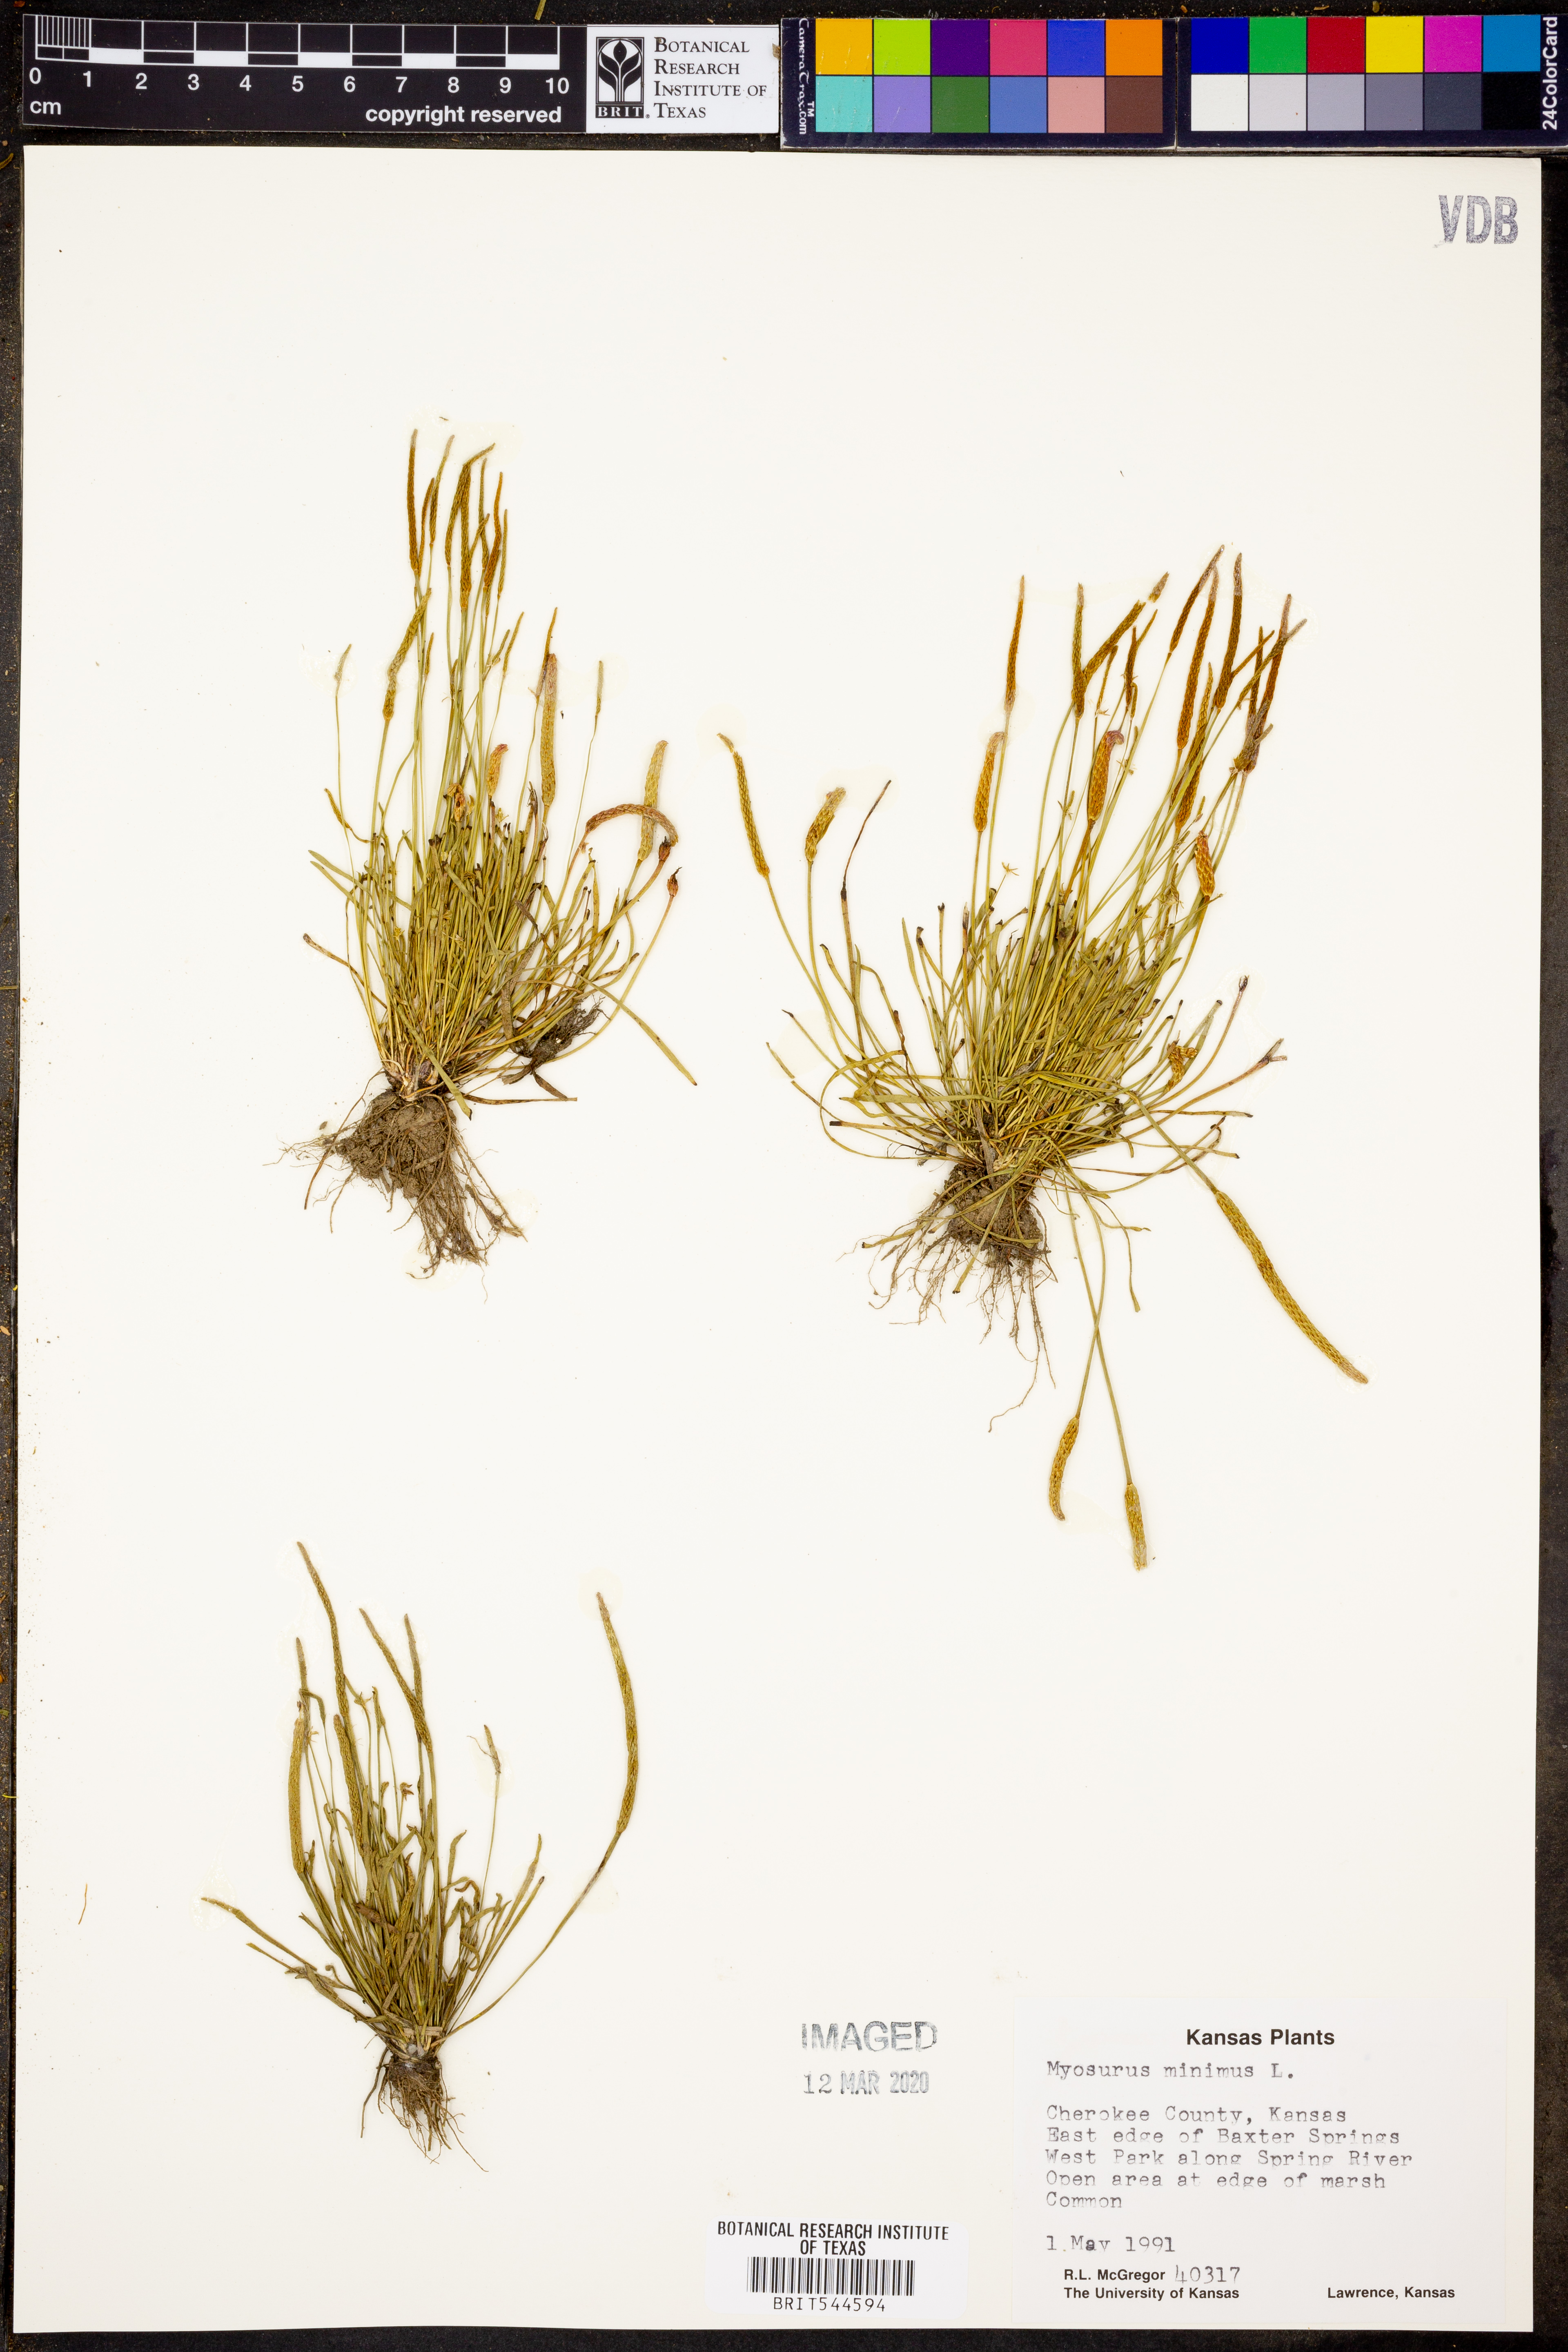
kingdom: Plantae
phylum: Tracheophyta
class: Magnoliopsida
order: Ranunculales
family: Ranunculaceae
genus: Myosurus
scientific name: Myosurus minimus
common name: Mousetail
